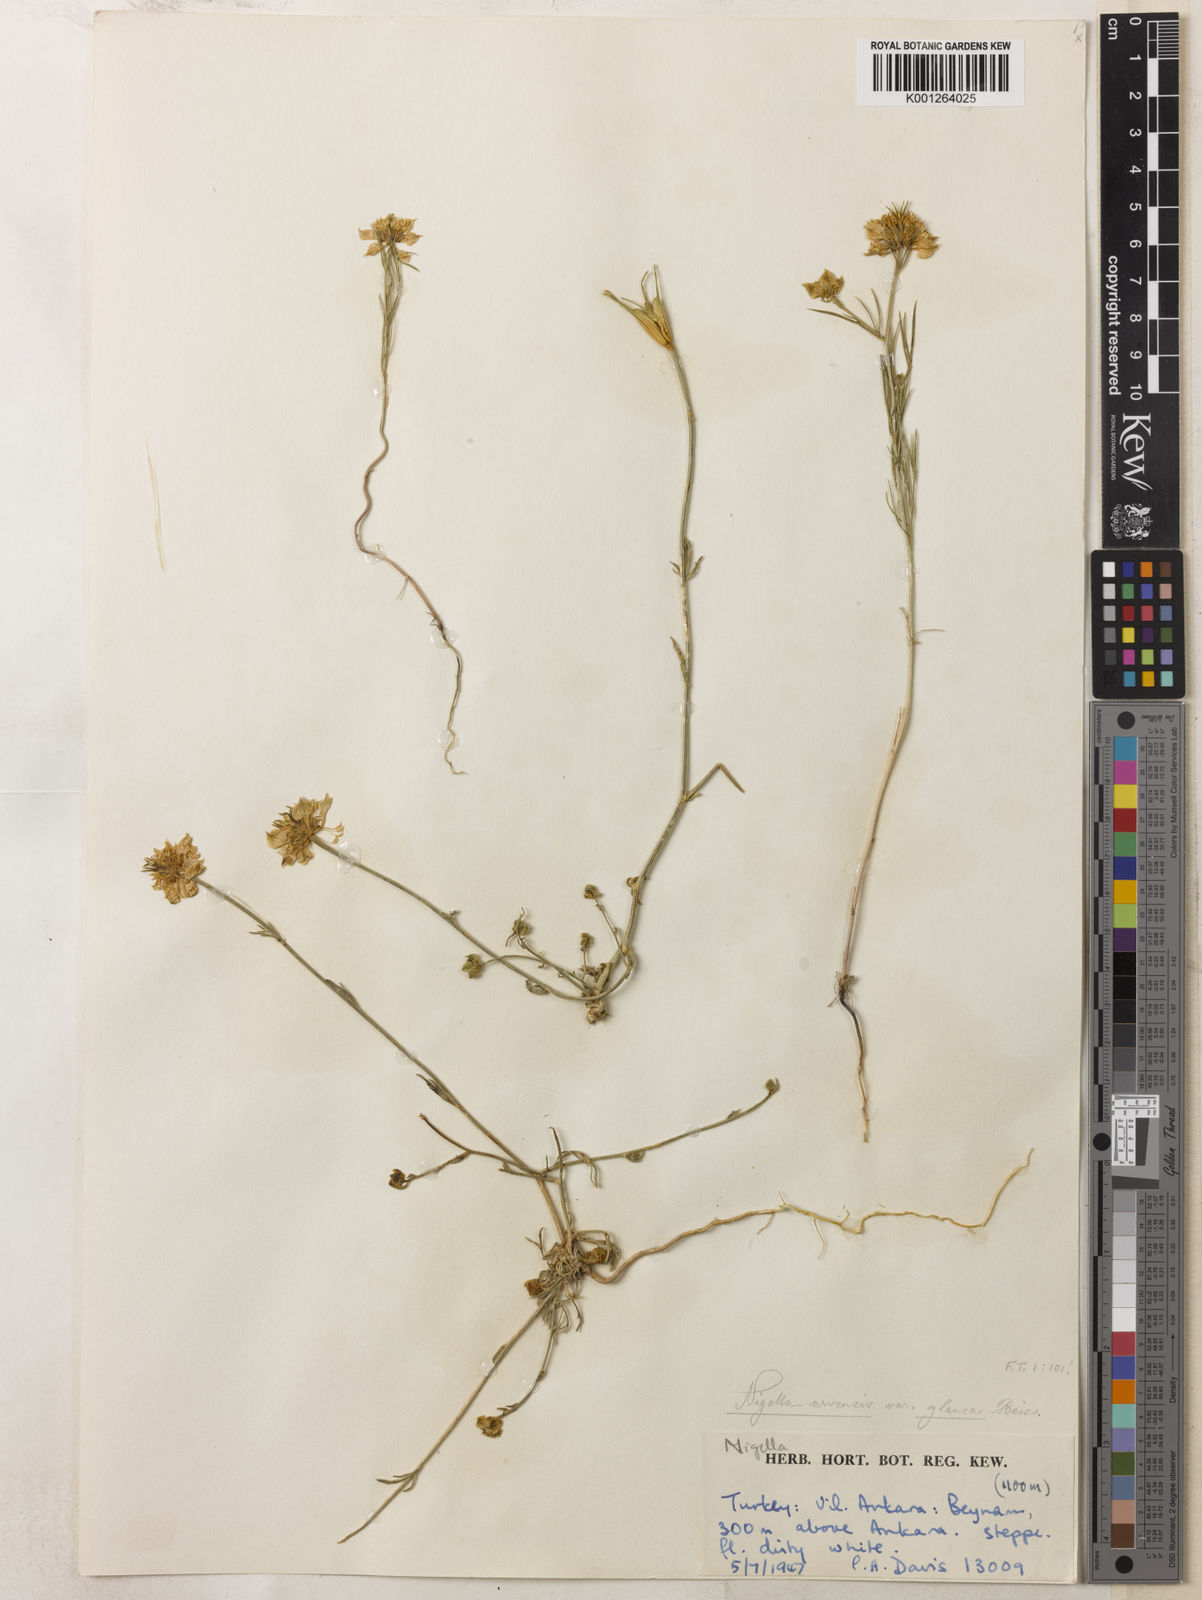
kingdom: Plantae
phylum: Tracheophyta
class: Magnoliopsida
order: Ranunculales
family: Ranunculaceae
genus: Nigella
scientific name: Nigella arvensis
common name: Wild fennel-flower
